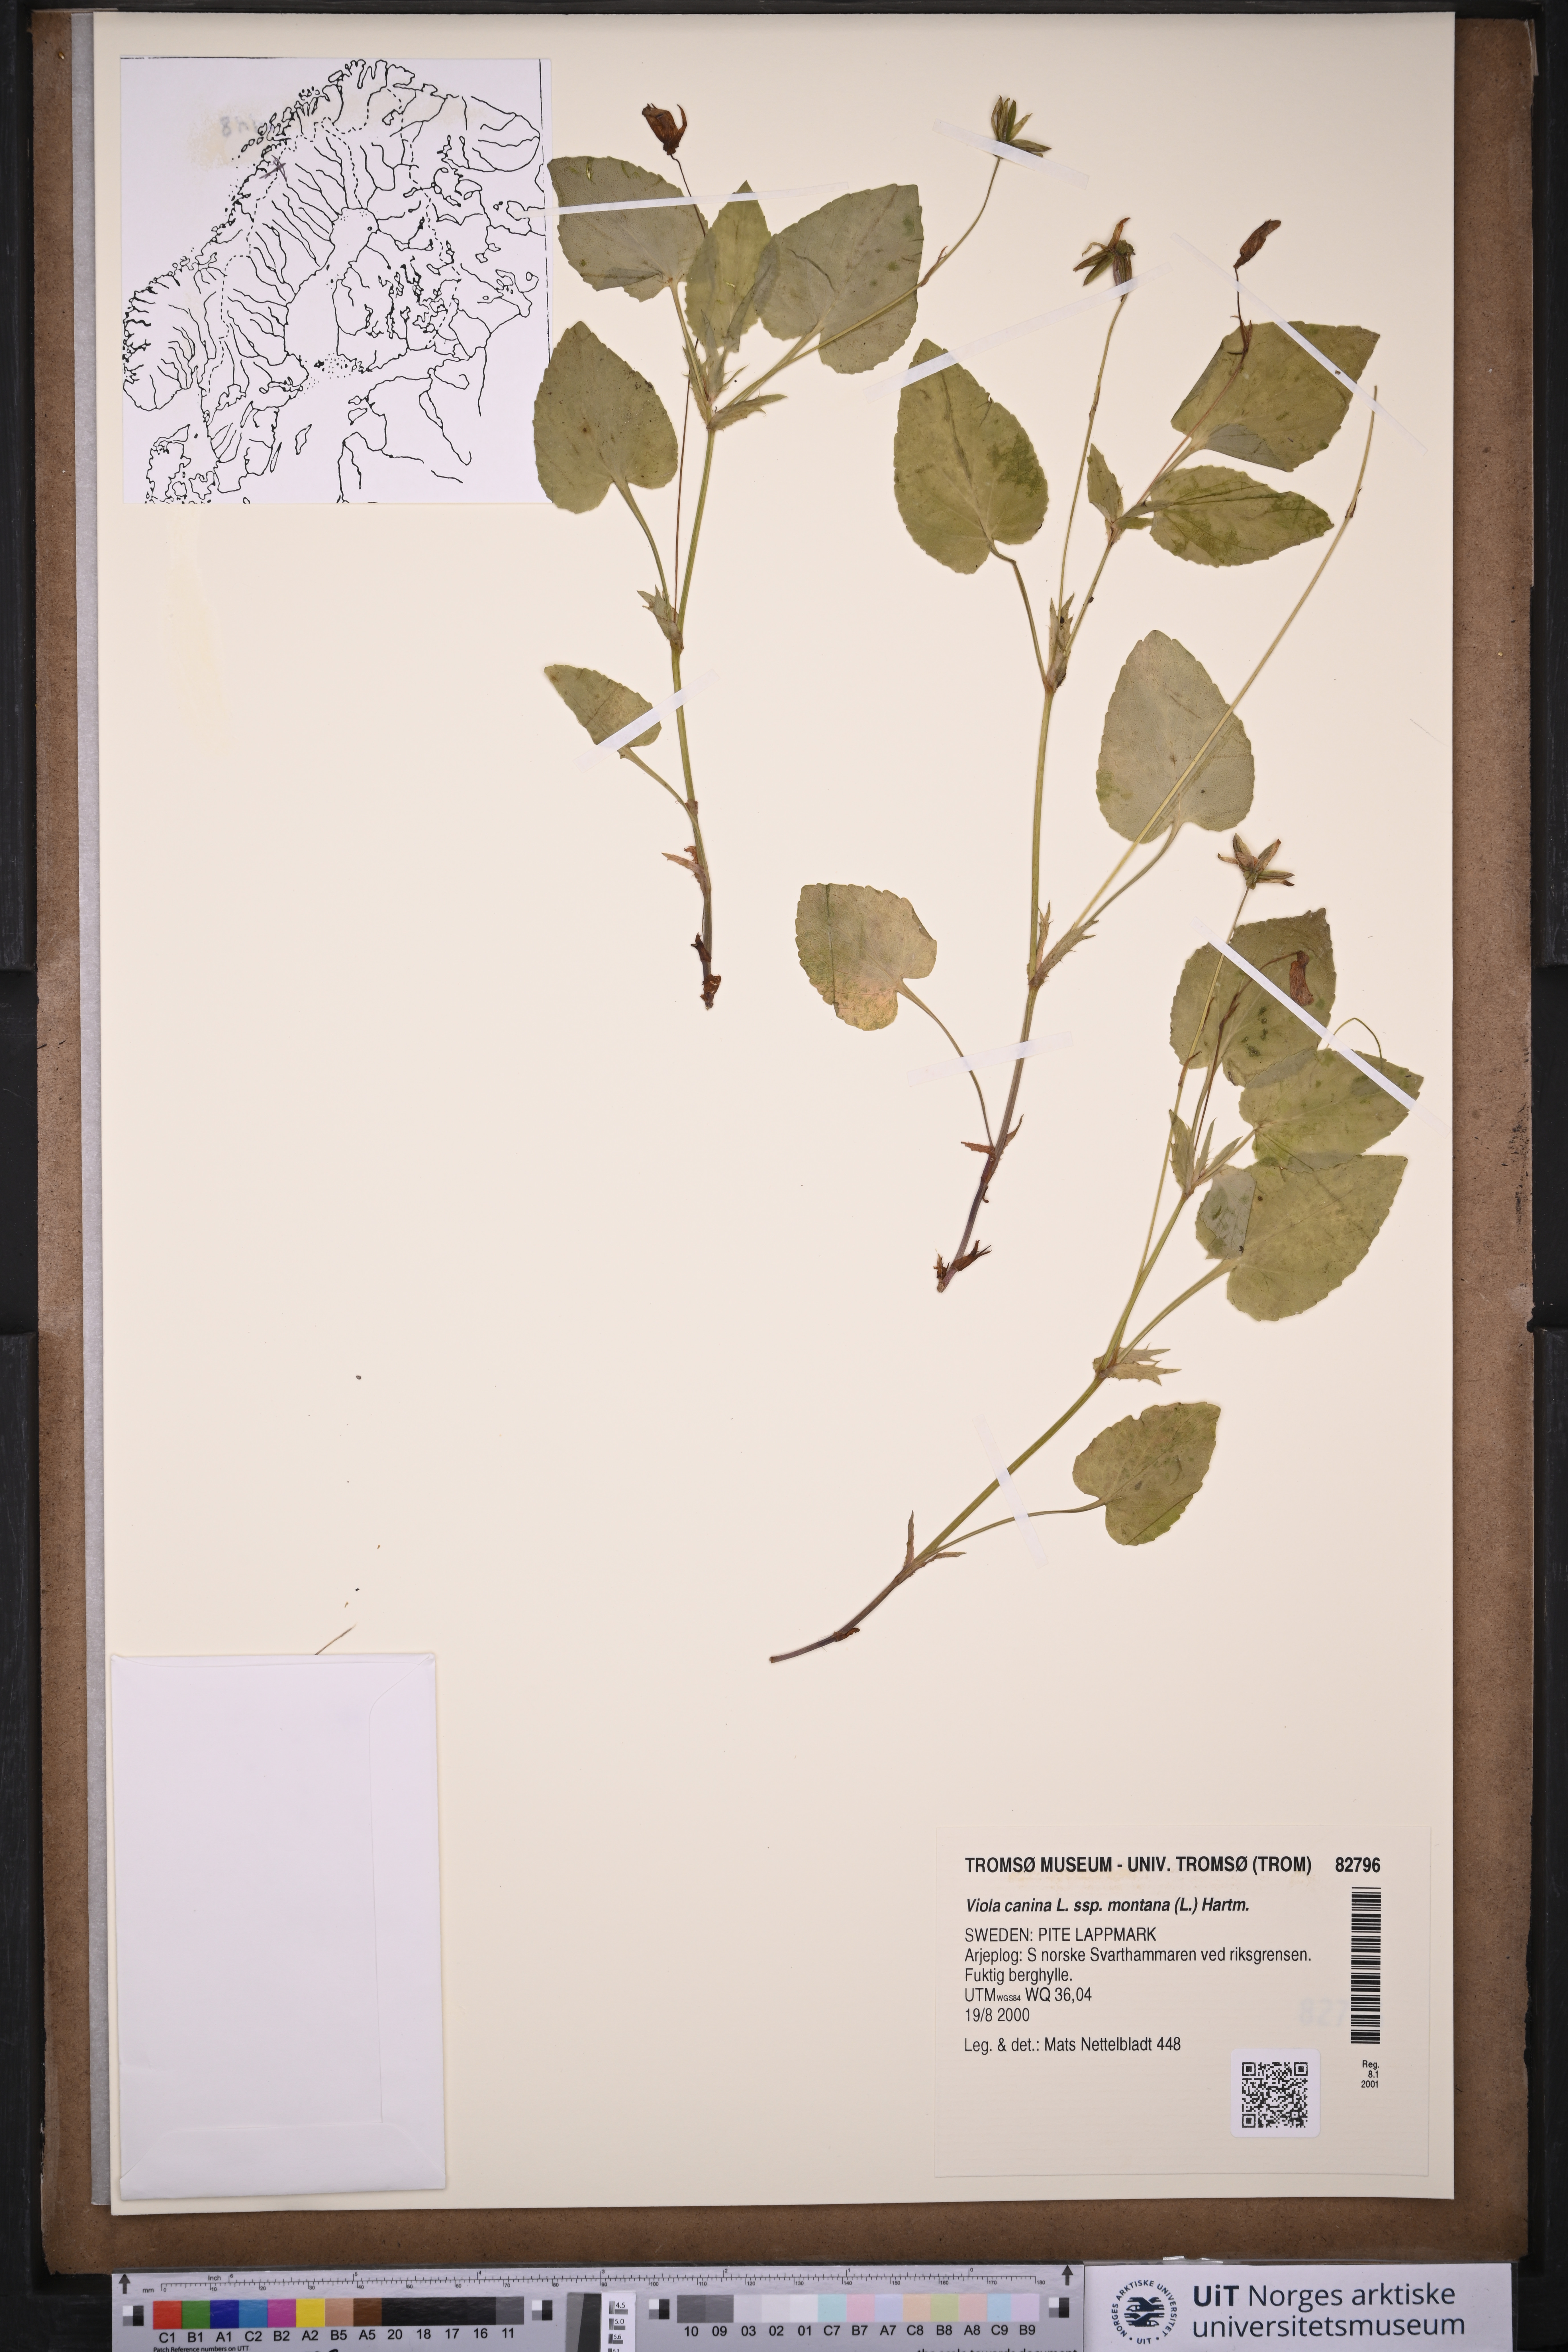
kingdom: Plantae
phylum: Tracheophyta
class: Magnoliopsida
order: Malpighiales
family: Violaceae
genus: Viola
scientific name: Viola ruppii
